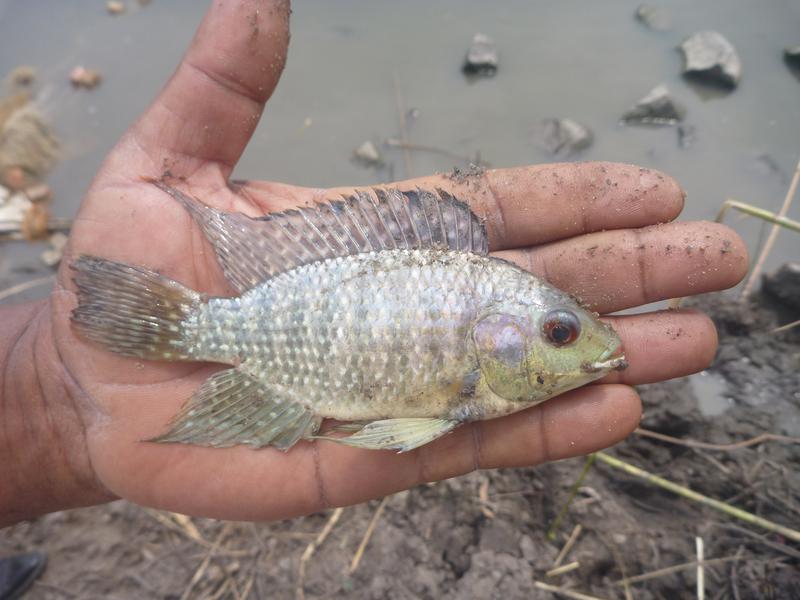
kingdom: Animalia
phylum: Chordata
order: Perciformes
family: Cichlidae
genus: Oreochromis
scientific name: Oreochromis leucostictus
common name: Blue spotted tilapia
